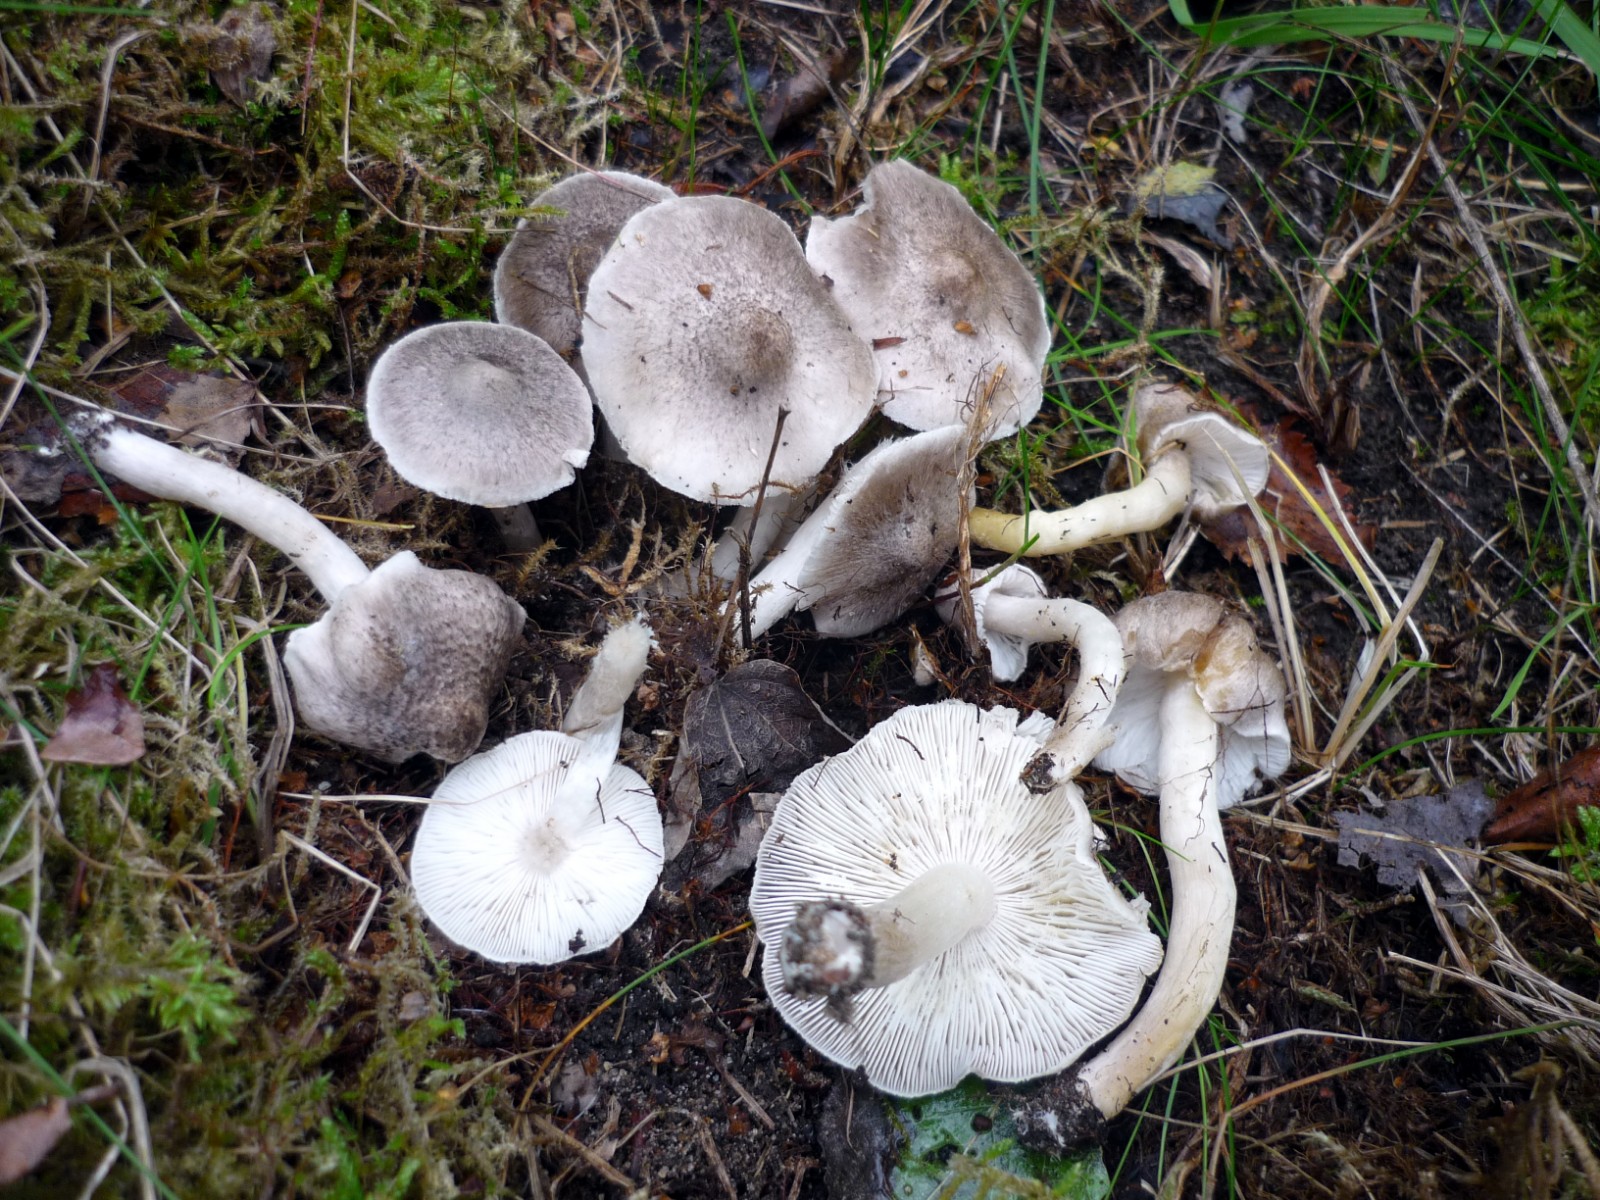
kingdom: Fungi
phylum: Basidiomycota
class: Agaricomycetes
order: Agaricales
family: Tricholomataceae
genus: Tricholoma
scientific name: Tricholoma argyraceum
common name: spids ridderhat
